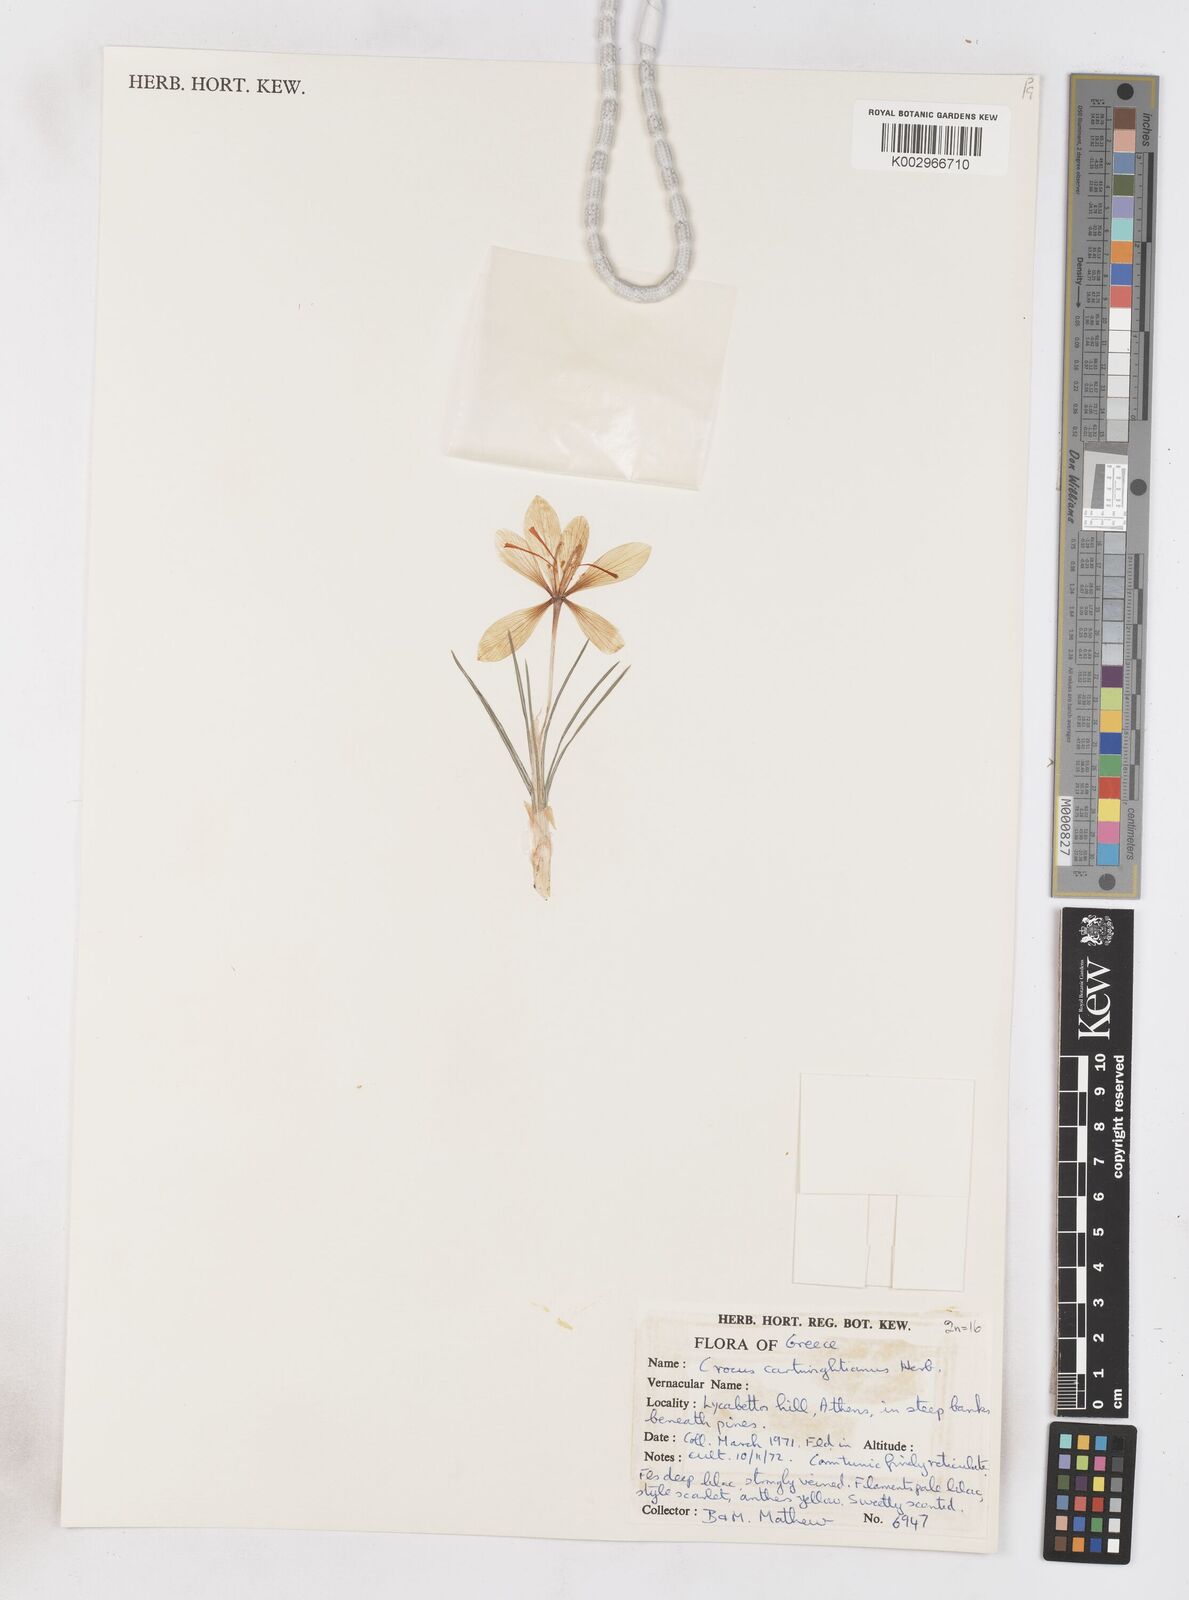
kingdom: Plantae
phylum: Tracheophyta
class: Liliopsida
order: Asparagales
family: Iridaceae
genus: Crocus
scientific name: Crocus cartwrightianus
